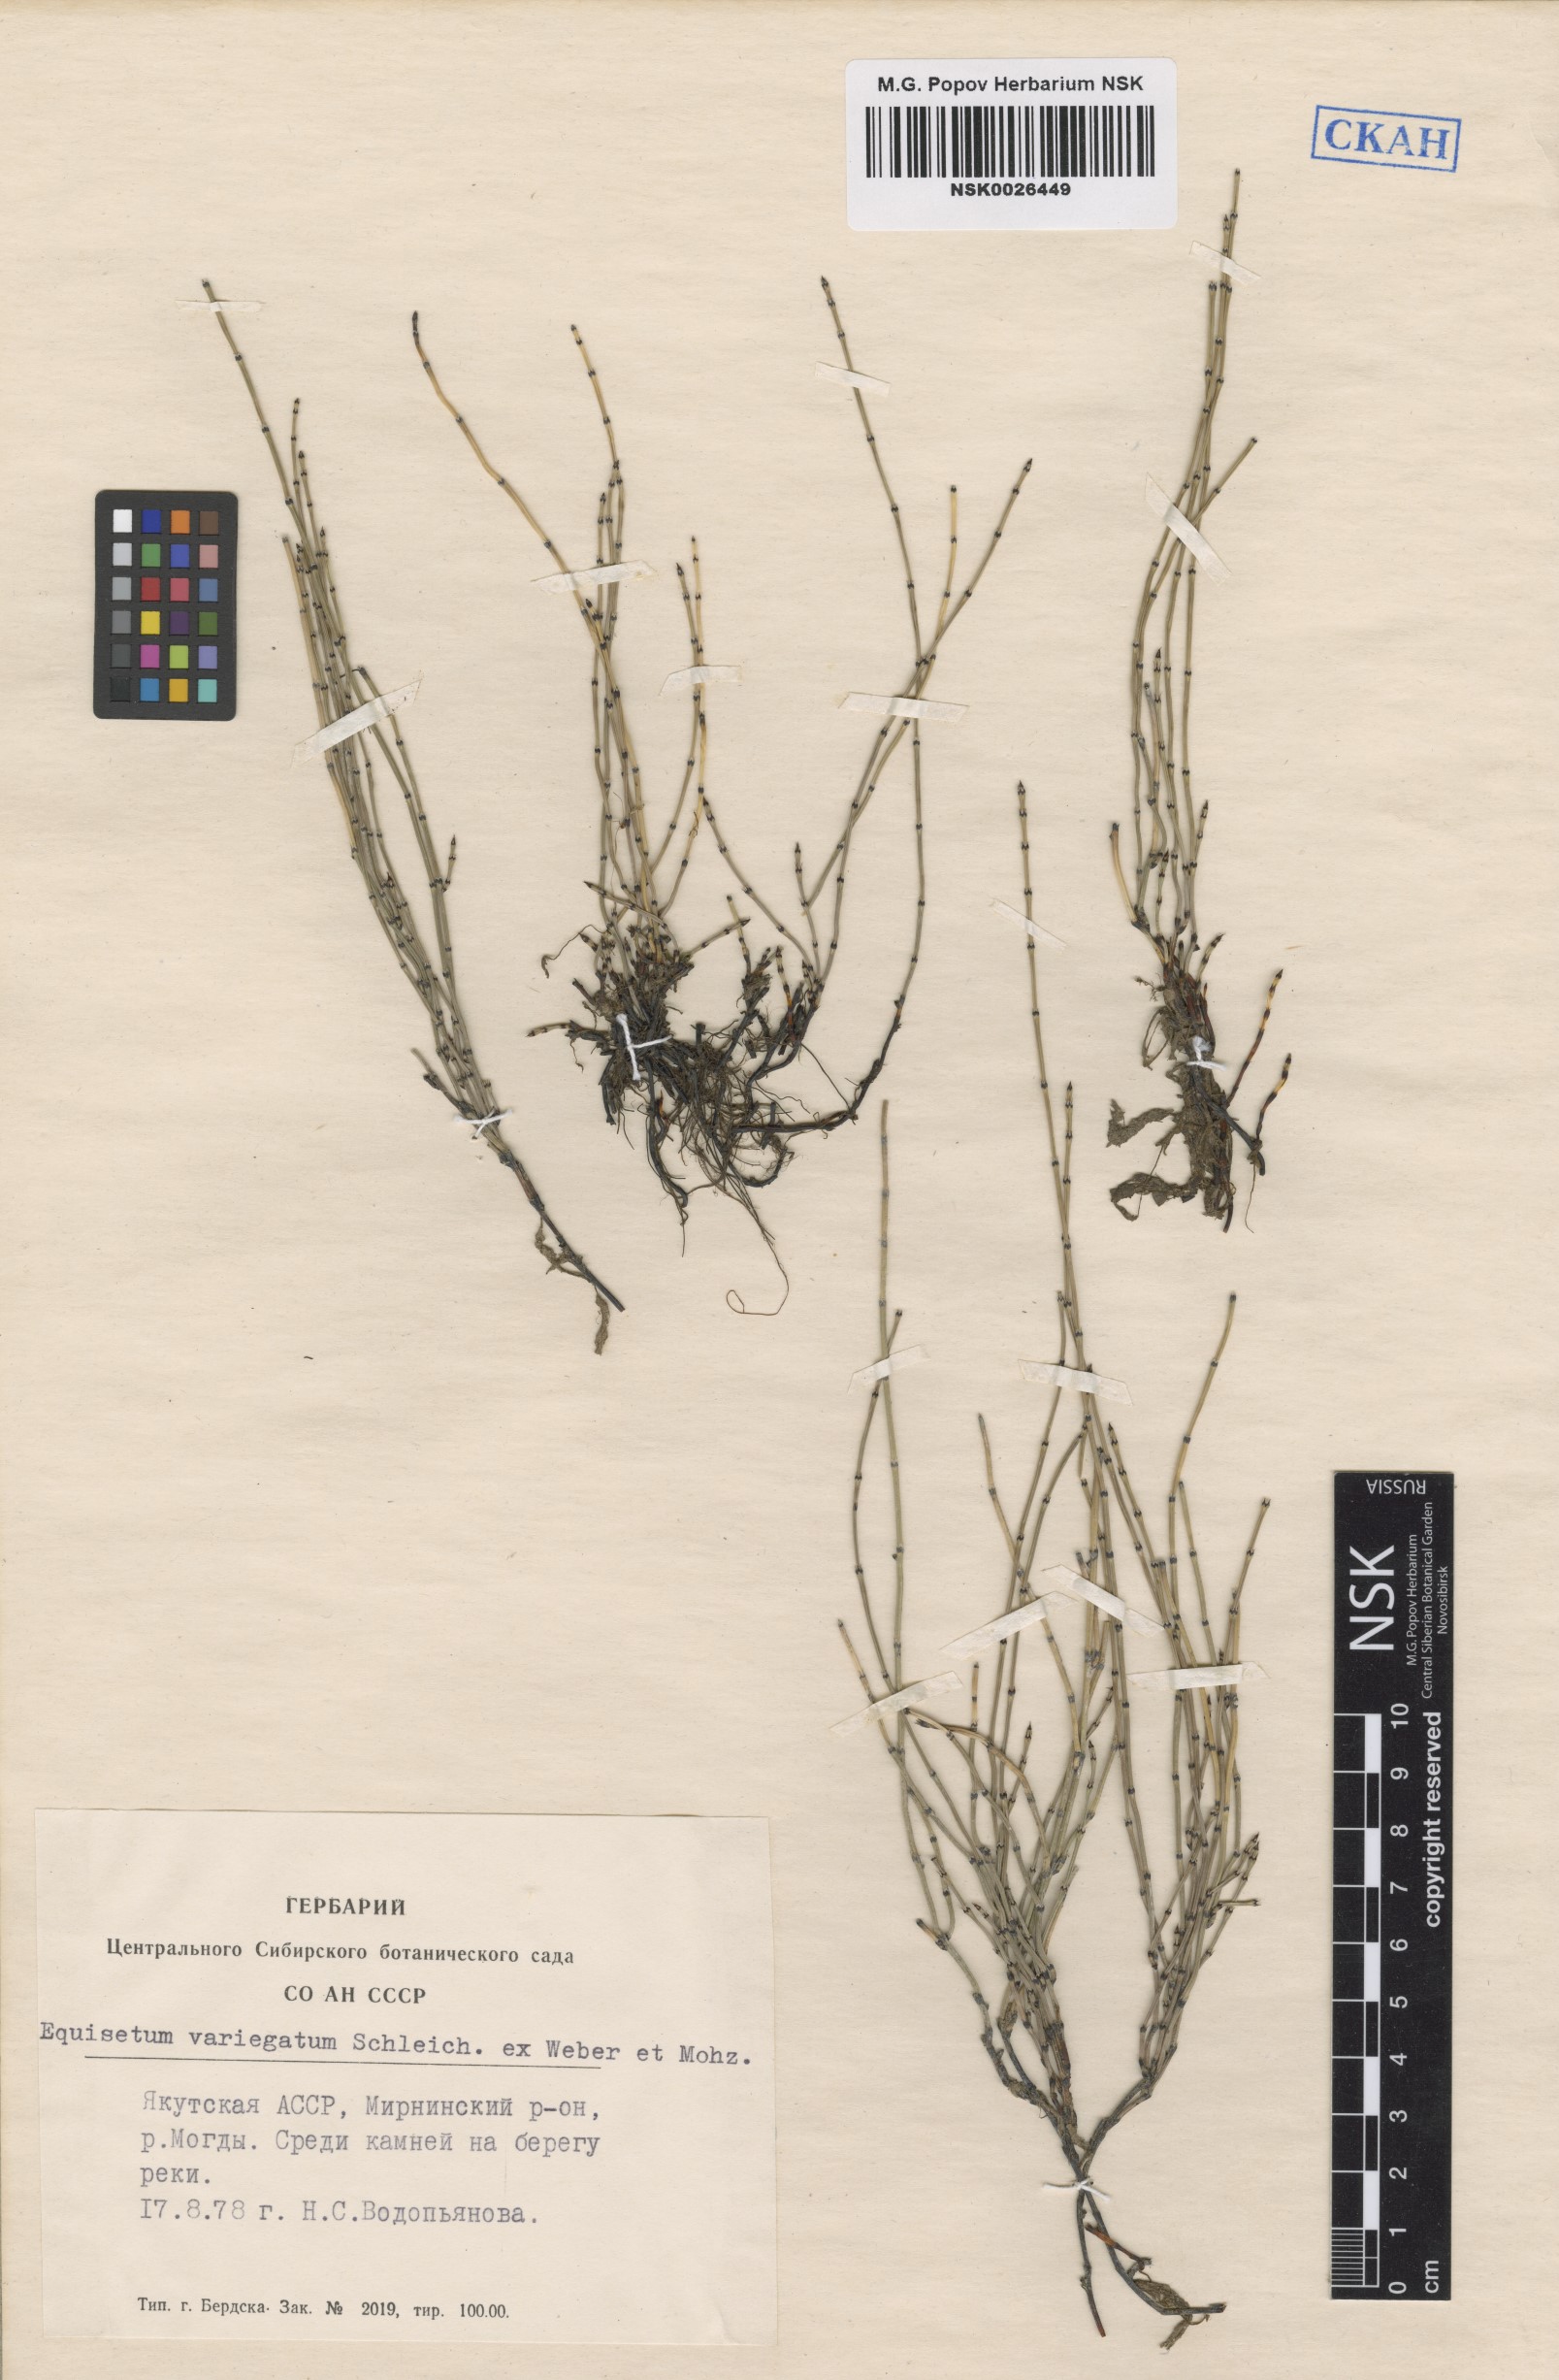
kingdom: Plantae
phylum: Tracheophyta
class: Polypodiopsida
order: Equisetales
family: Equisetaceae
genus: Equisetum
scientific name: Equisetum variegatum
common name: Variegated horsetail
